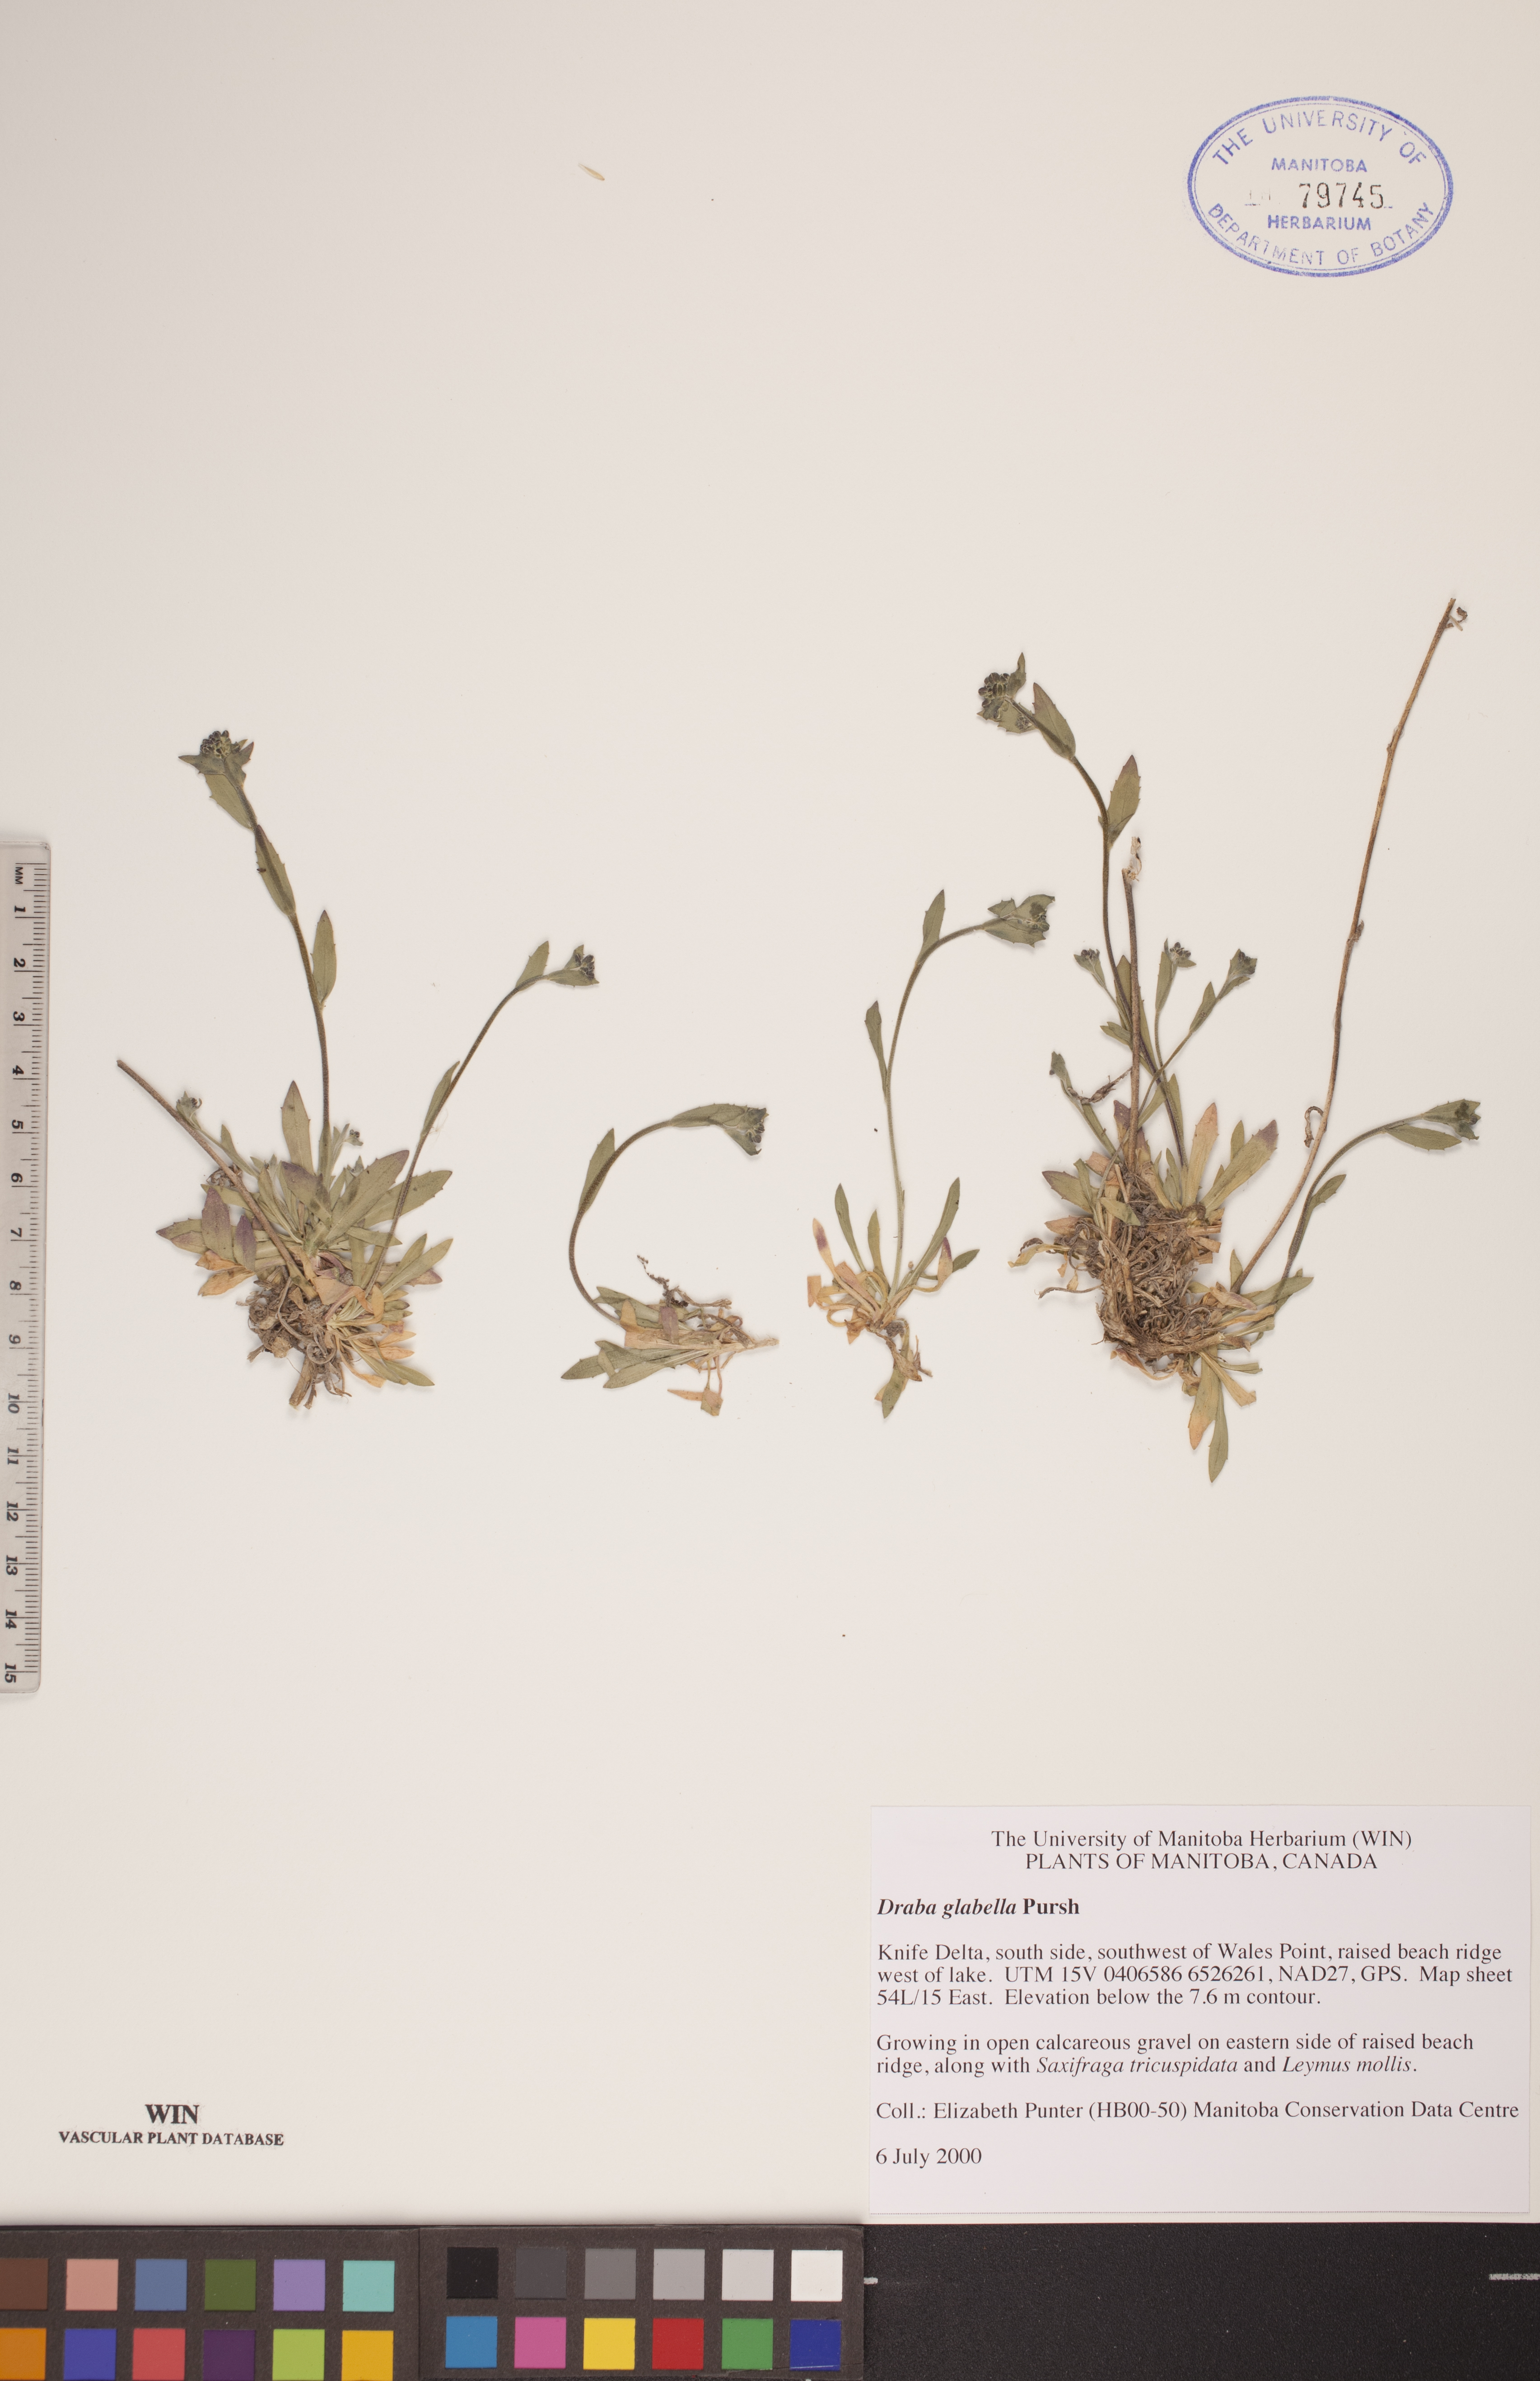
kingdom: Plantae
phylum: Tracheophyta
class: Magnoliopsida
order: Brassicales
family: Brassicaceae
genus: Draba
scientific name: Draba glabella
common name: Glaucous draba
